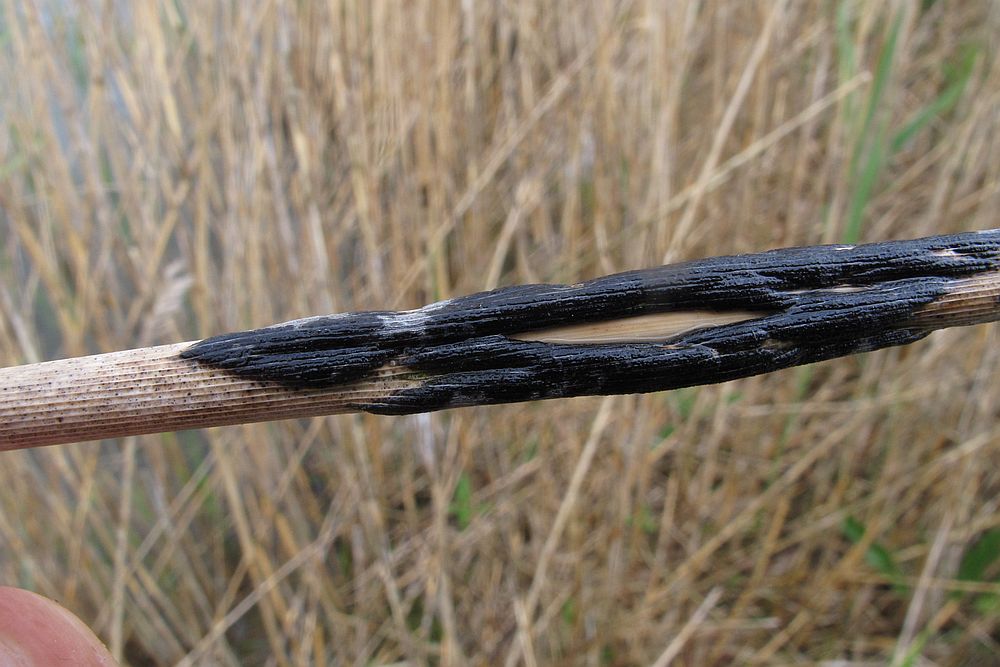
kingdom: Fungi
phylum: Ascomycota
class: Dothideomycetes
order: Dothideales
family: Dothideaceae
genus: Scirrhia
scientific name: Scirrhia rimosa
